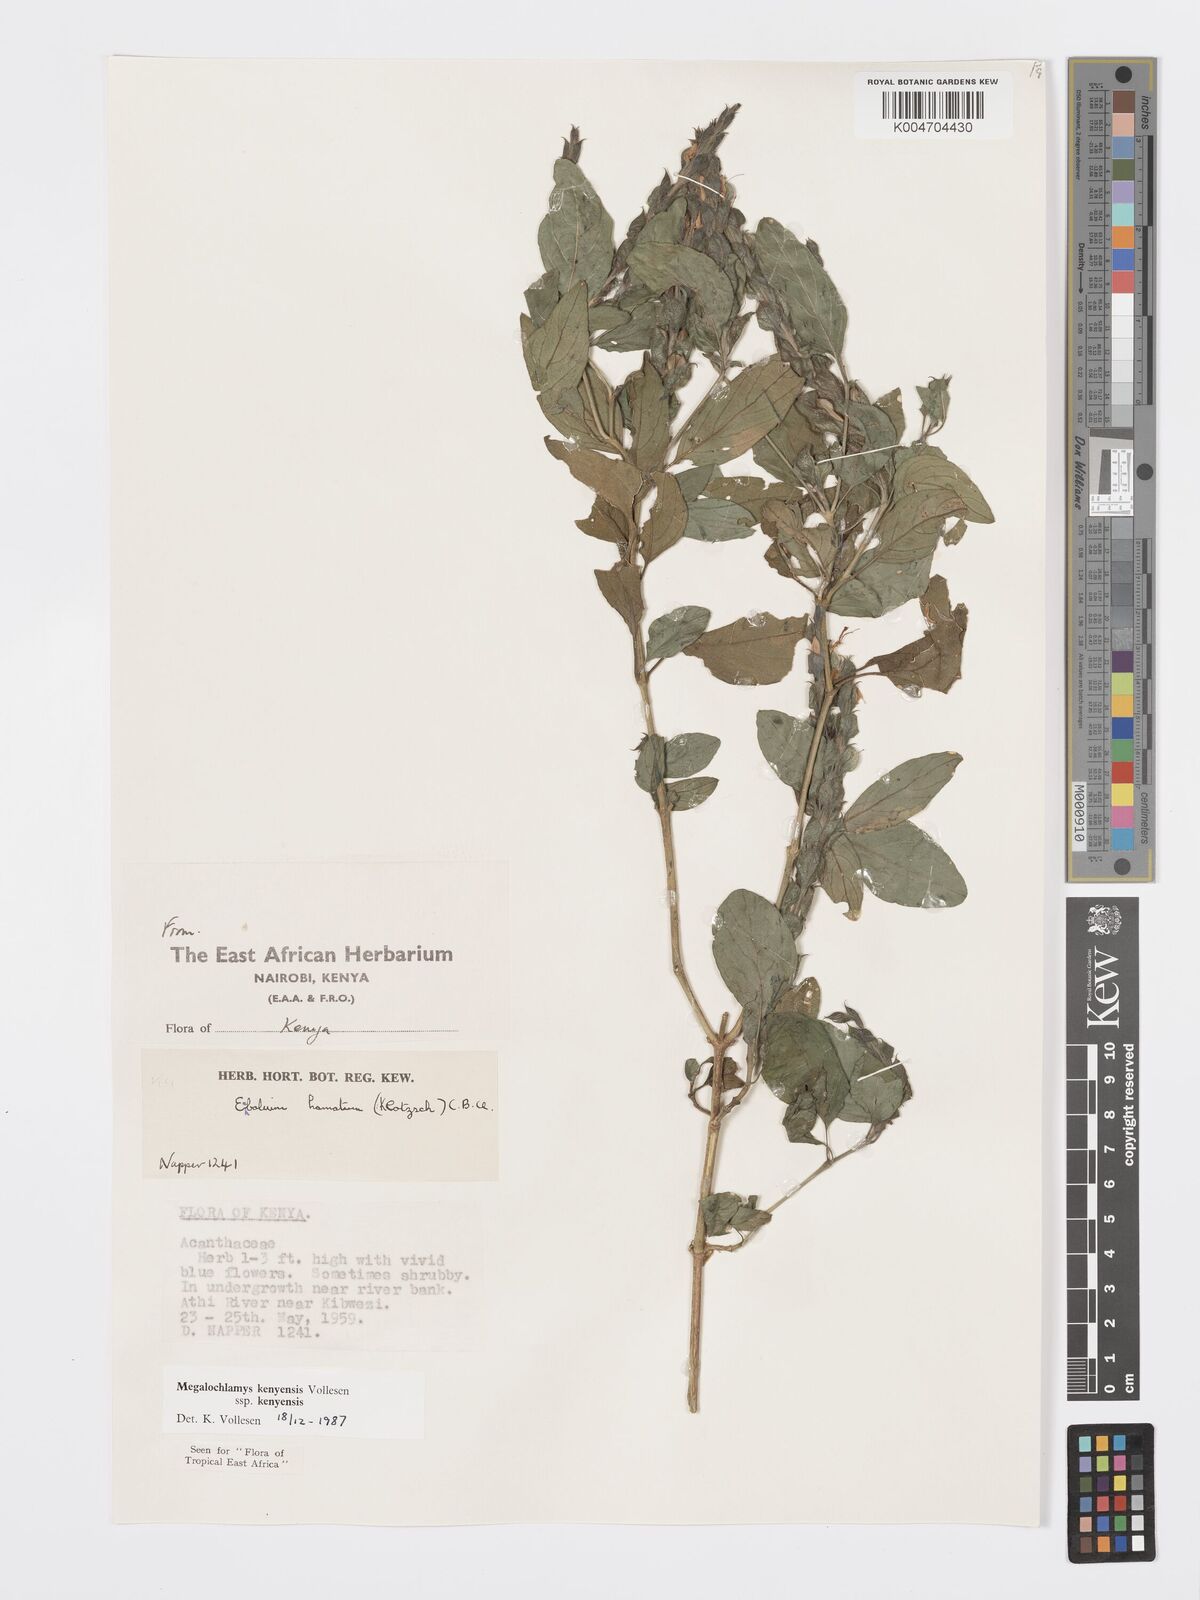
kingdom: Plantae
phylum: Tracheophyta
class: Magnoliopsida
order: Lamiales
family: Acanthaceae
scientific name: Acanthaceae
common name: Acanthaceae
